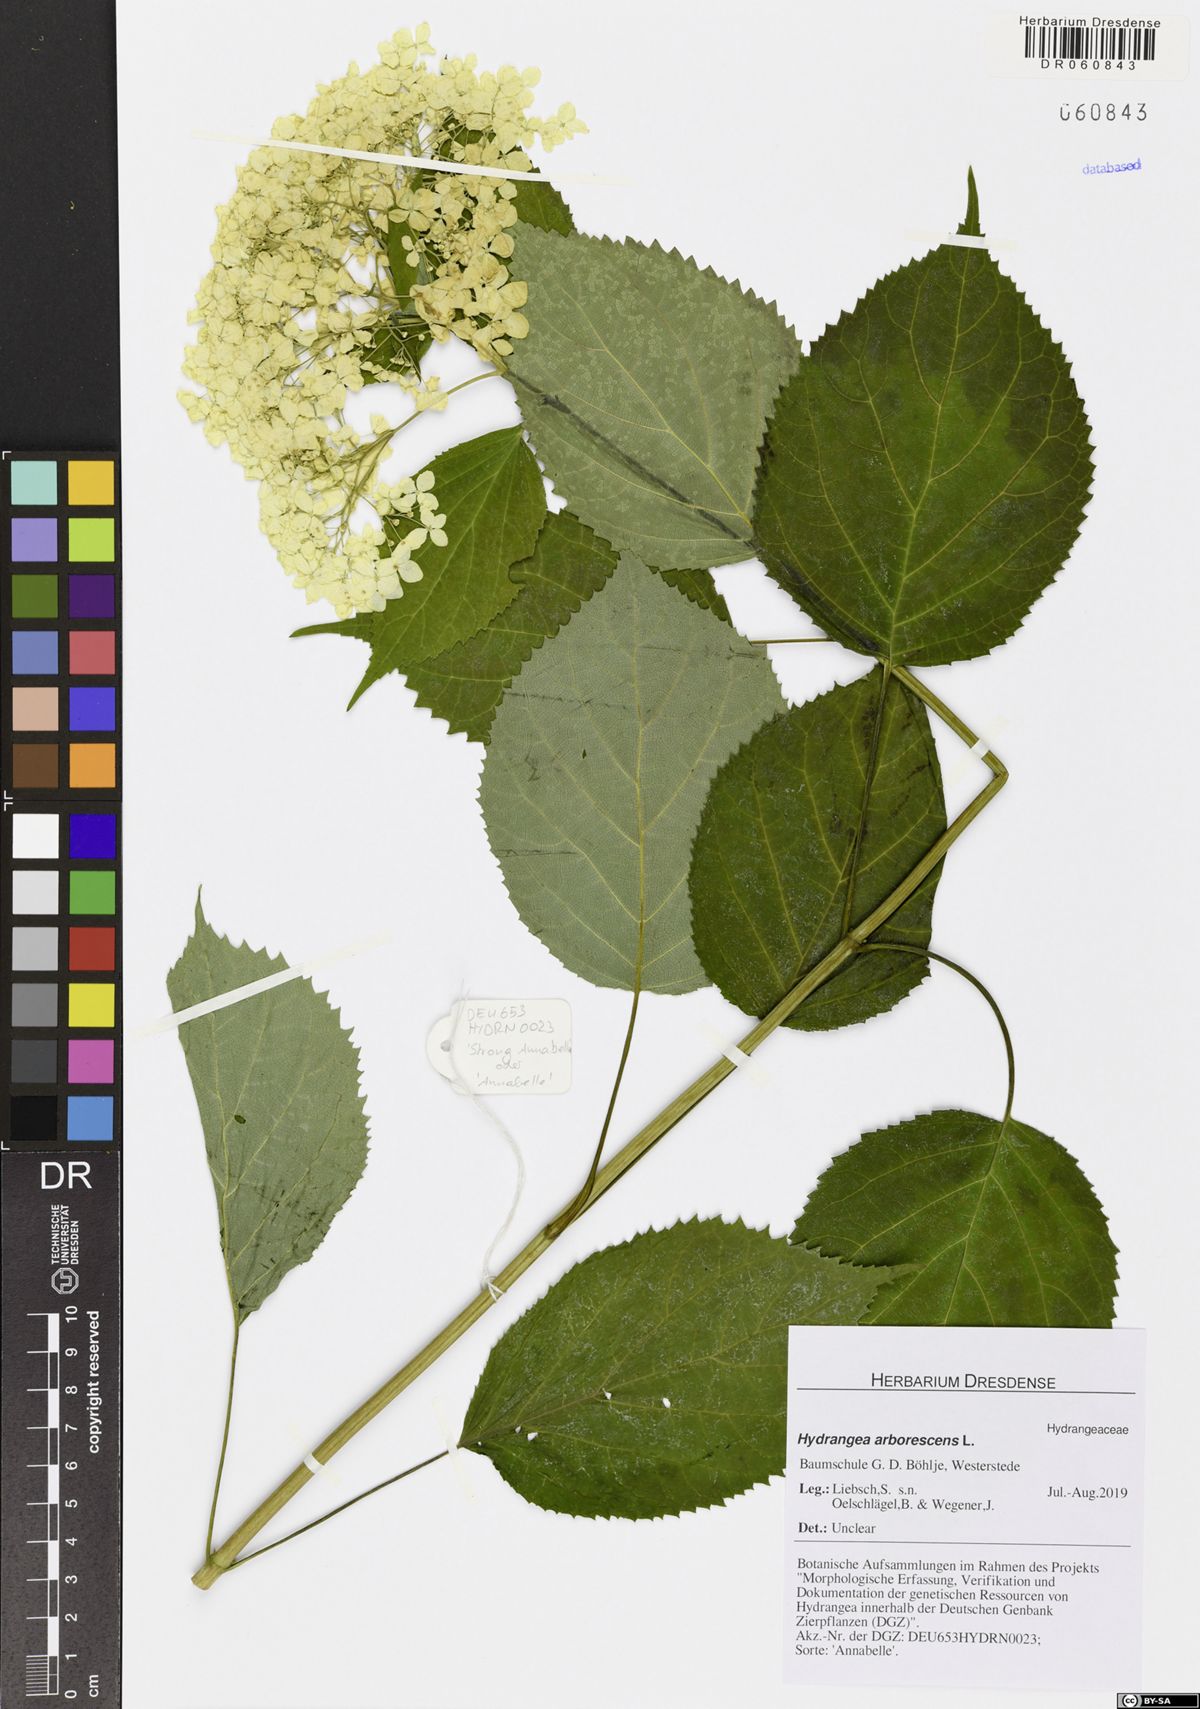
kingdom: Plantae
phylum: Tracheophyta
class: Magnoliopsida
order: Cornales
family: Hydrangeaceae
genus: Hydrangea
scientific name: Hydrangea arborescens
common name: Sevenbark
